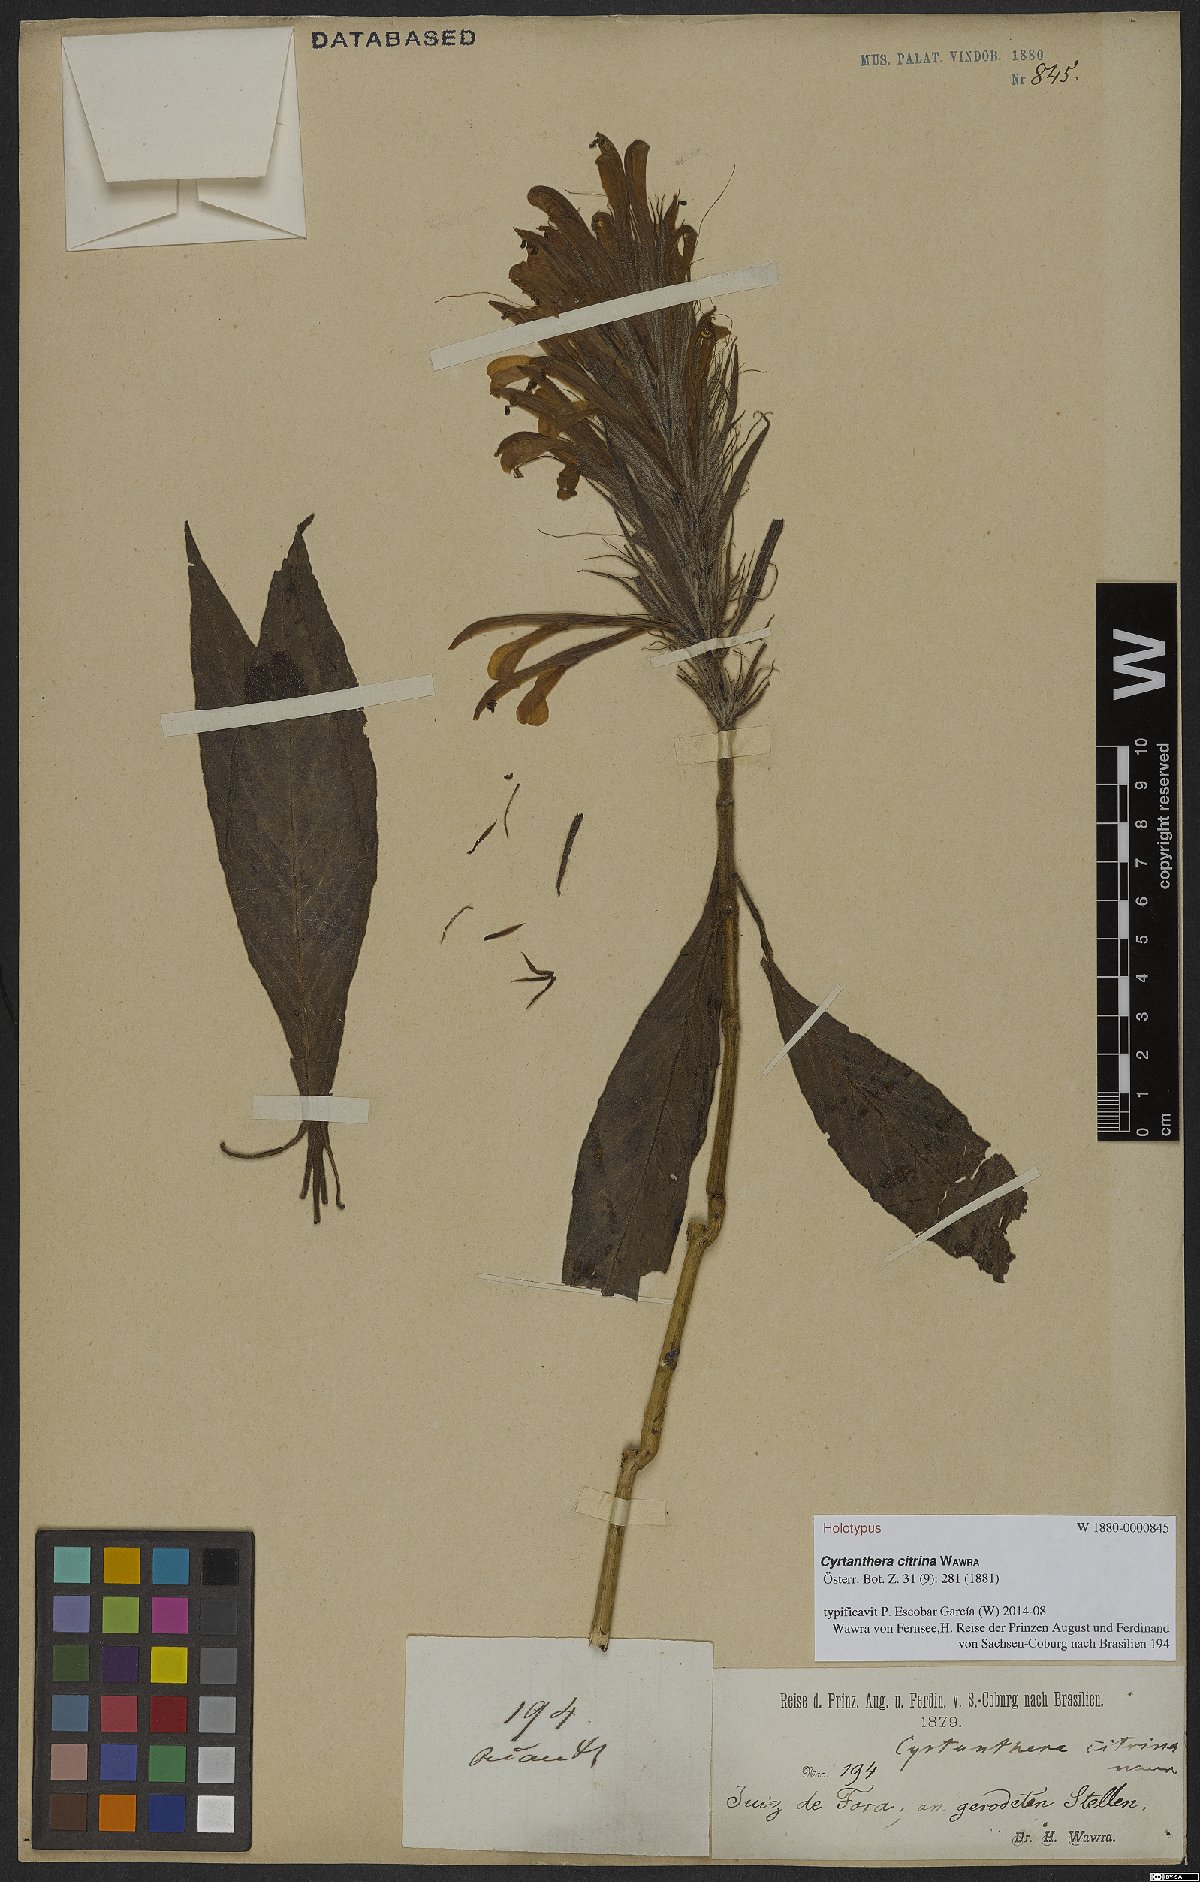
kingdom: Plantae
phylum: Tracheophyta
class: Magnoliopsida
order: Lamiales
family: Acanthaceae
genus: Justicia
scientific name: Justicia citrina
